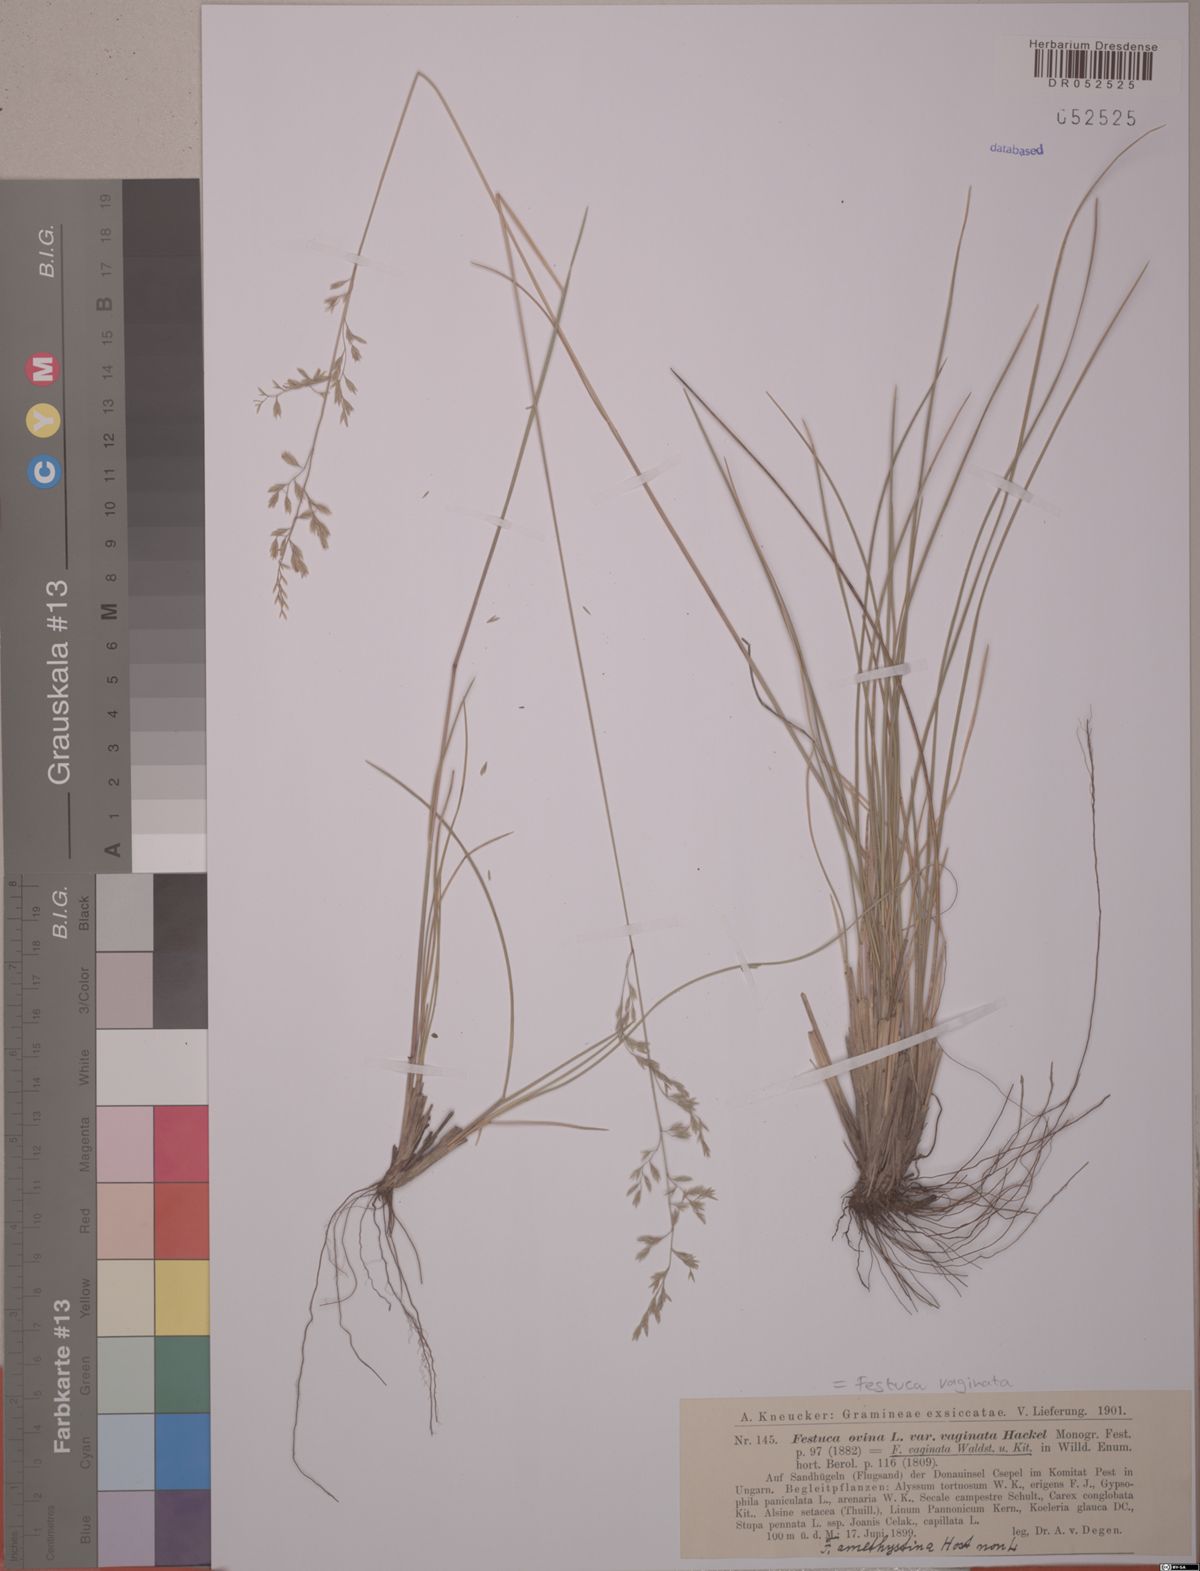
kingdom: Plantae
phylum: Tracheophyta
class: Liliopsida
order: Poales
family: Poaceae
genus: Festuca
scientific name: Festuca vaginata
